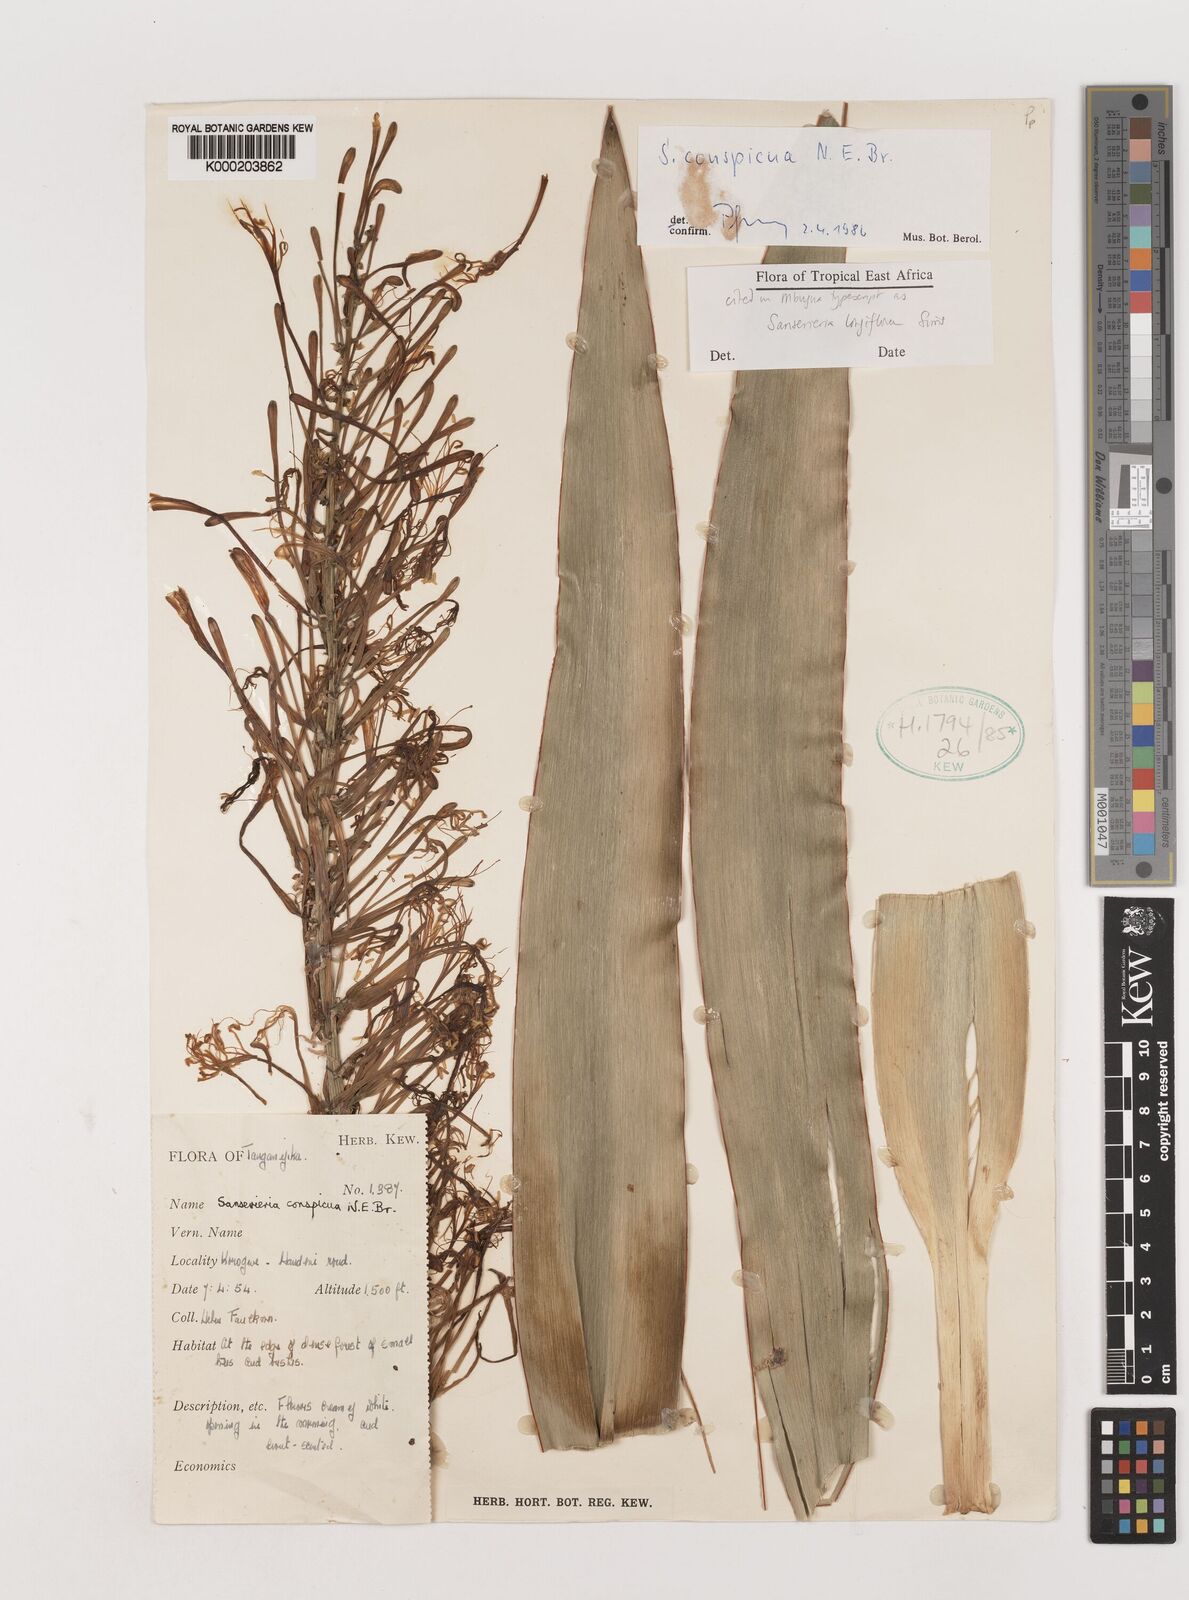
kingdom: Plantae
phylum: Tracheophyta
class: Liliopsida
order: Asparagales
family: Asparagaceae
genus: Dracaena
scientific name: Dracaena conspicua
